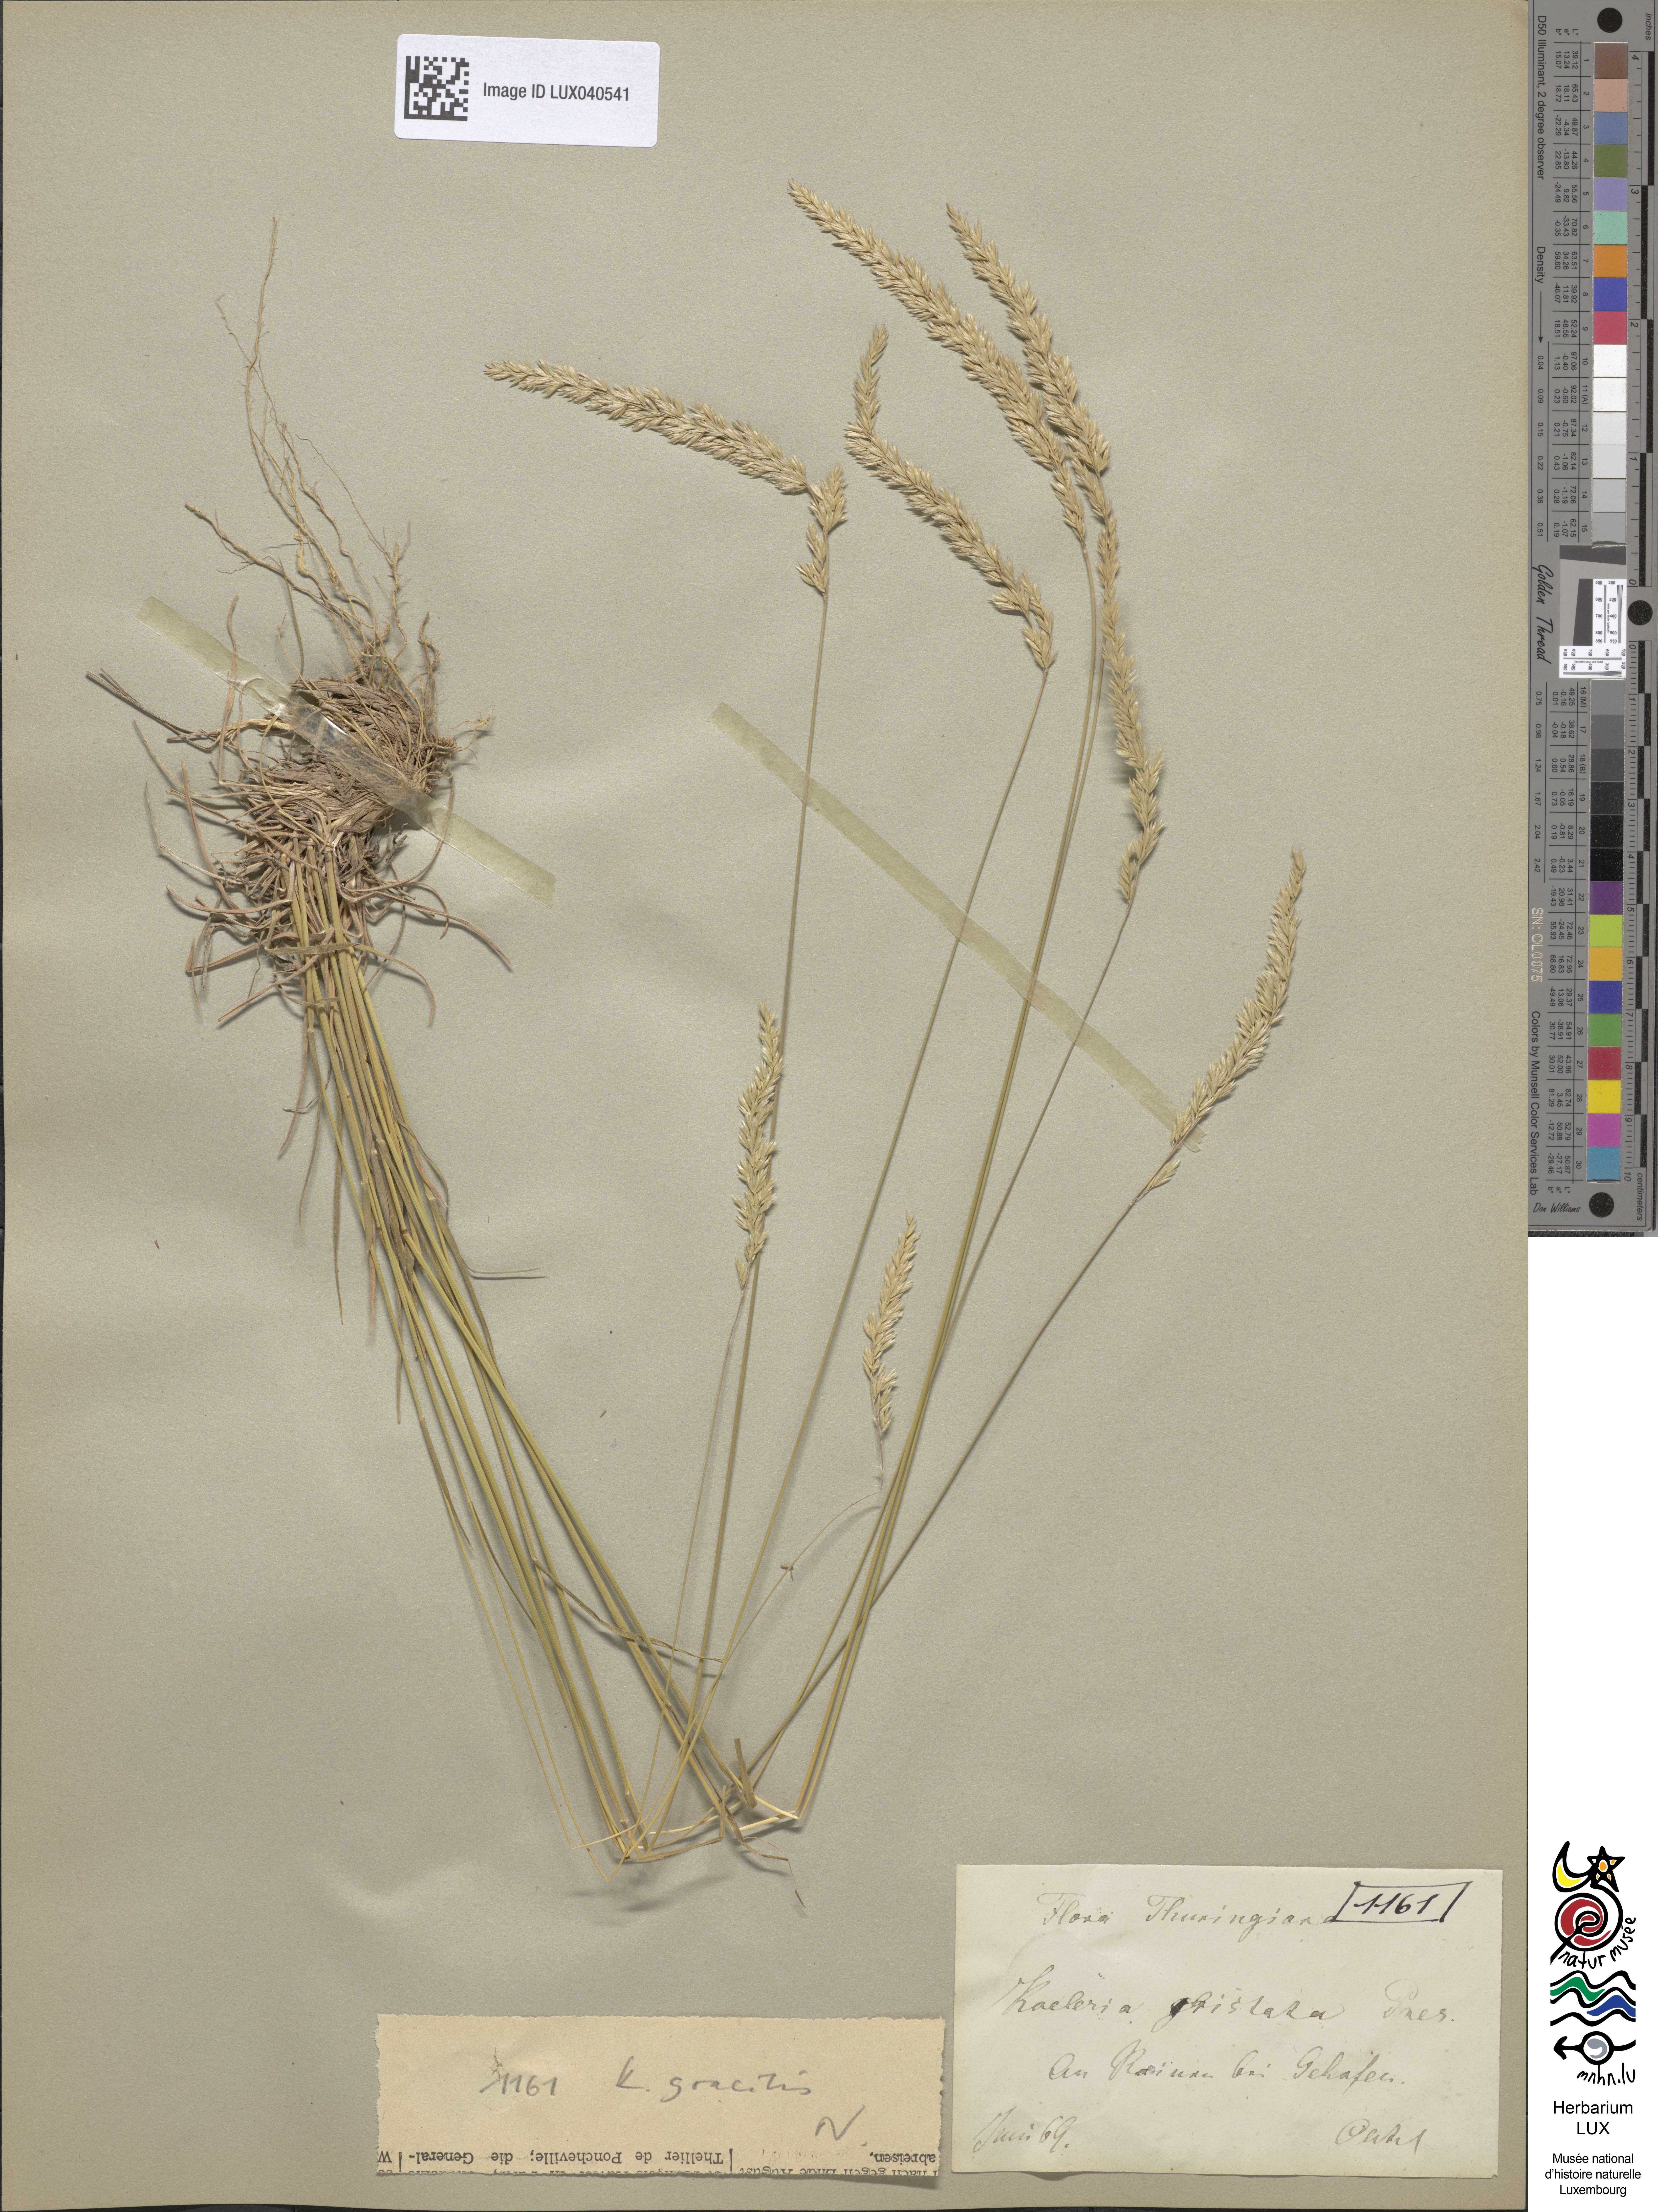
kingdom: Plantae
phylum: Tracheophyta
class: Liliopsida
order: Poales
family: Poaceae
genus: Koeleria
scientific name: Koeleria cristata
